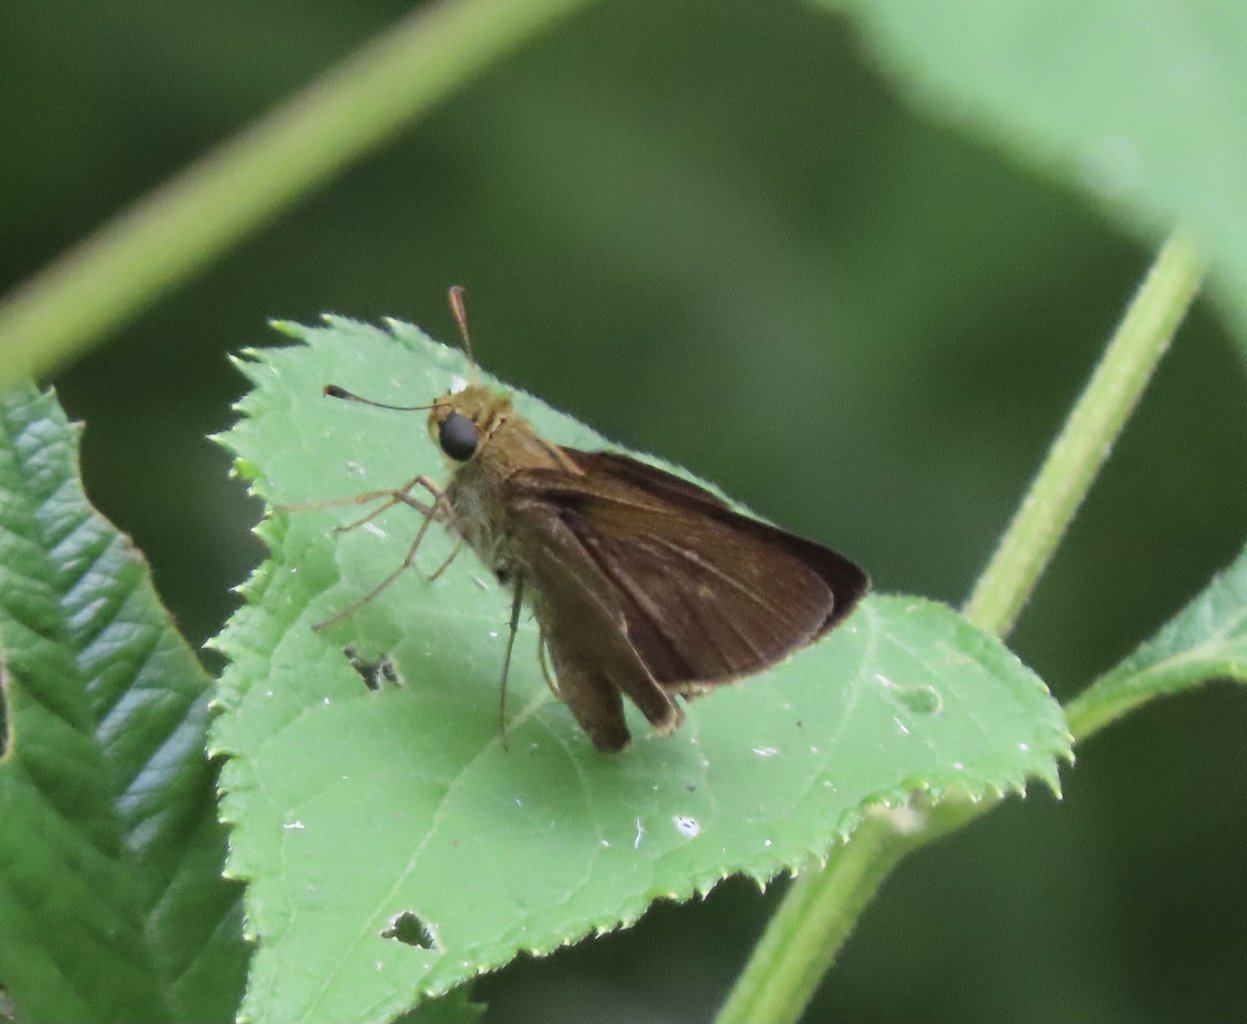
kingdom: Animalia
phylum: Arthropoda
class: Insecta
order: Lepidoptera
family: Hesperiidae
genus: Euphyes
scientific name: Euphyes vestris
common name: Dun Skipper
